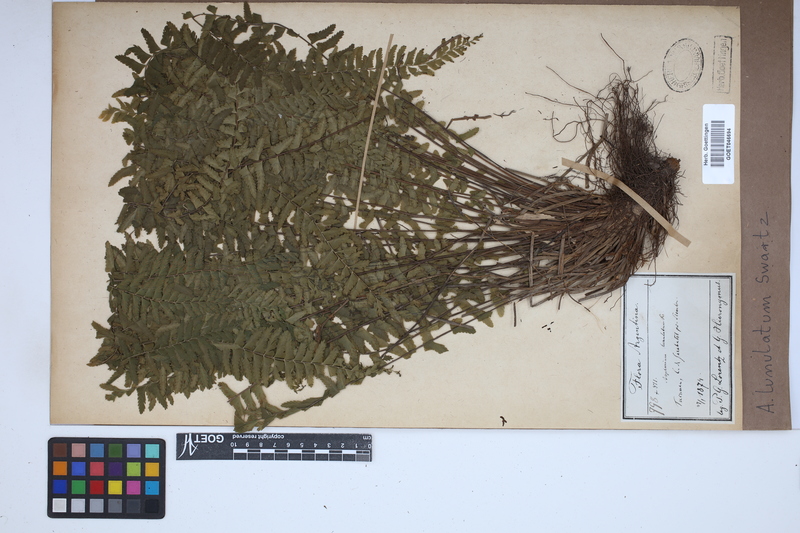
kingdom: Plantae
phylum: Tracheophyta
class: Polypodiopsida
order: Polypodiales
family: Aspleniaceae
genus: Asplenium
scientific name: Asplenium lunulatum
